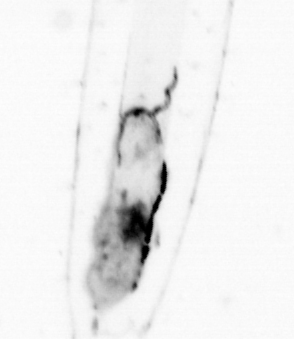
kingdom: Animalia
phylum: Chaetognatha
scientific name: Chaetognatha
